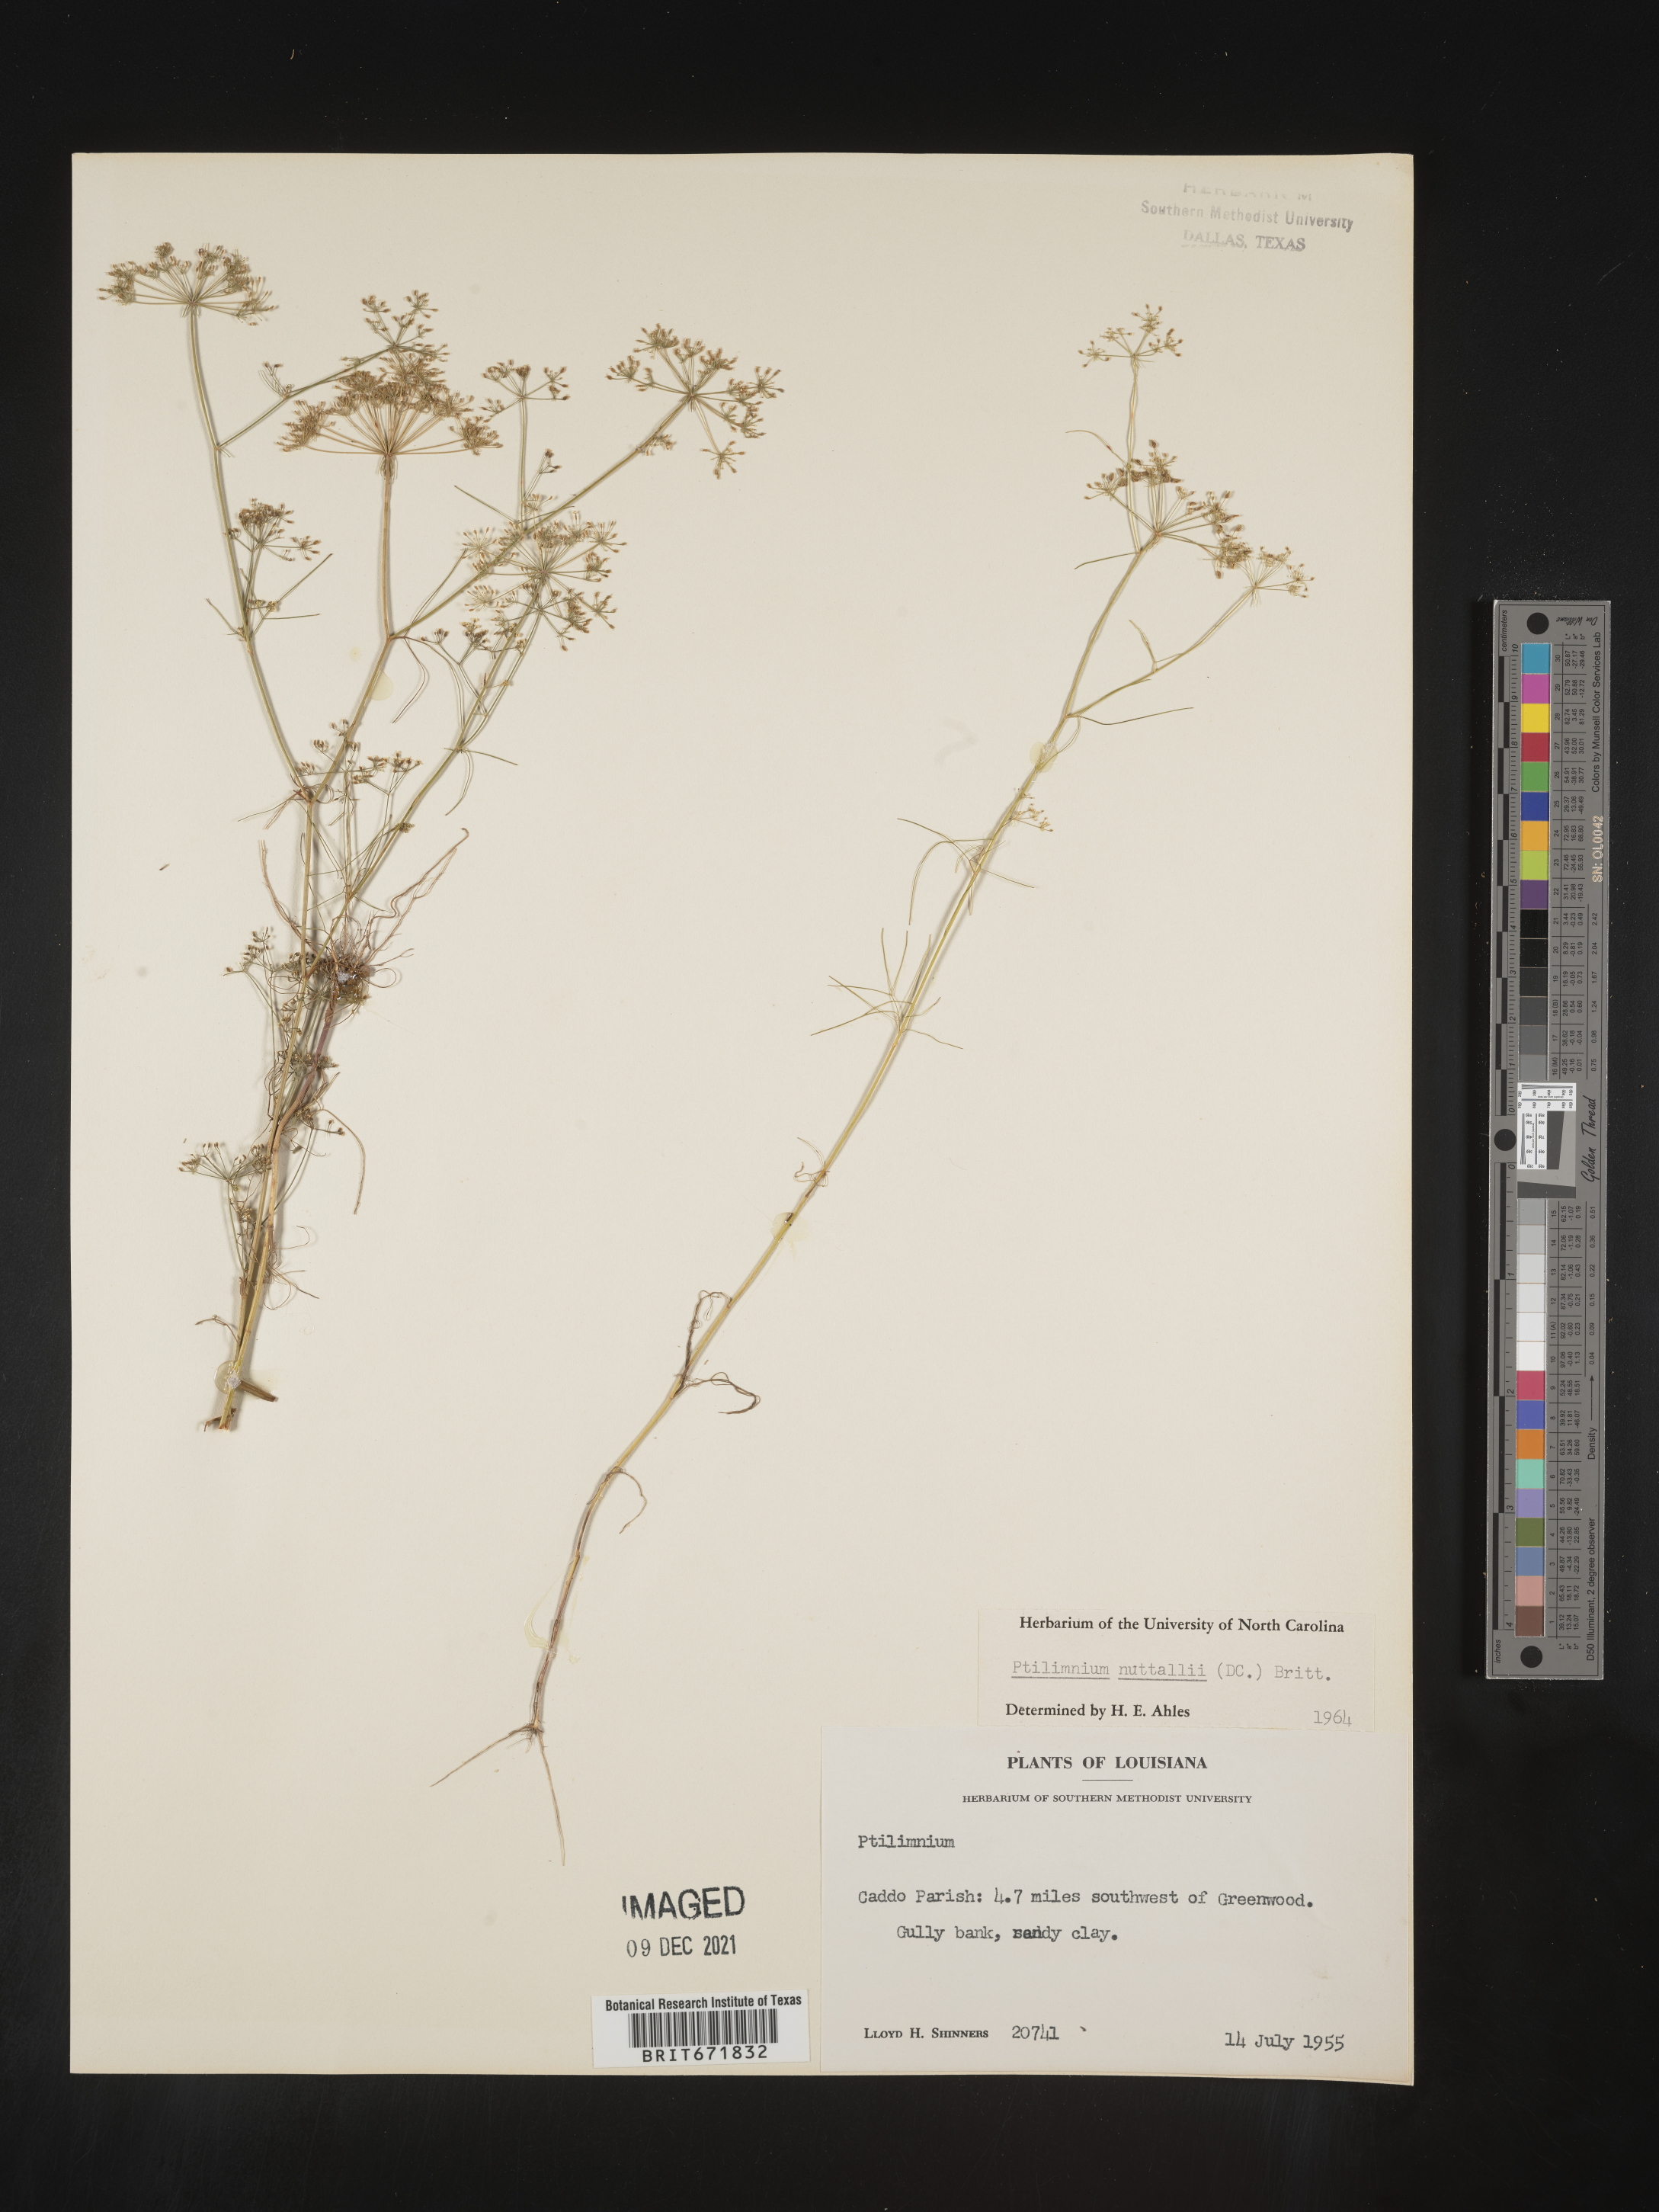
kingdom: Plantae
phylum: Tracheophyta
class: Magnoliopsida
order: Apiales
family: Apiaceae
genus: Ptilimnium
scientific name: Ptilimnium nuttallii
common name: Ozark bishop's-weed
